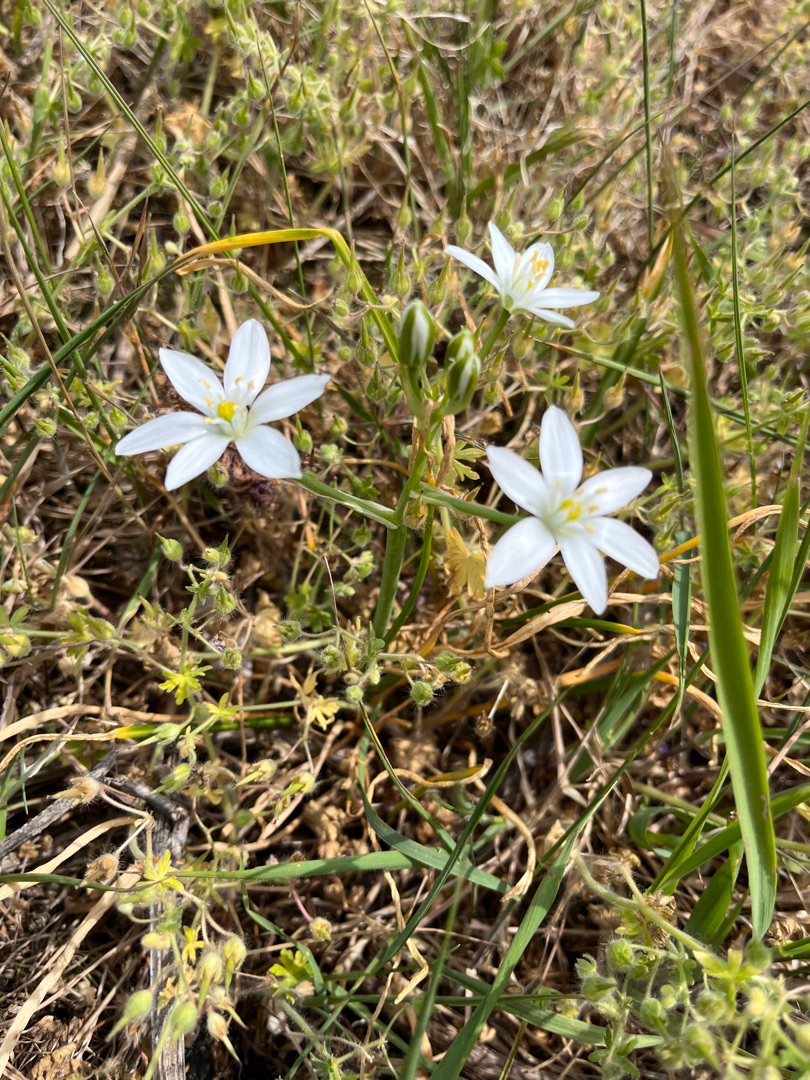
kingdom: Plantae
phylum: Tracheophyta
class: Liliopsida
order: Asparagales
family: Asparagaceae
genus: Ornithogalum
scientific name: Ornithogalum umbellatum
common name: Kost-fuglemælk
